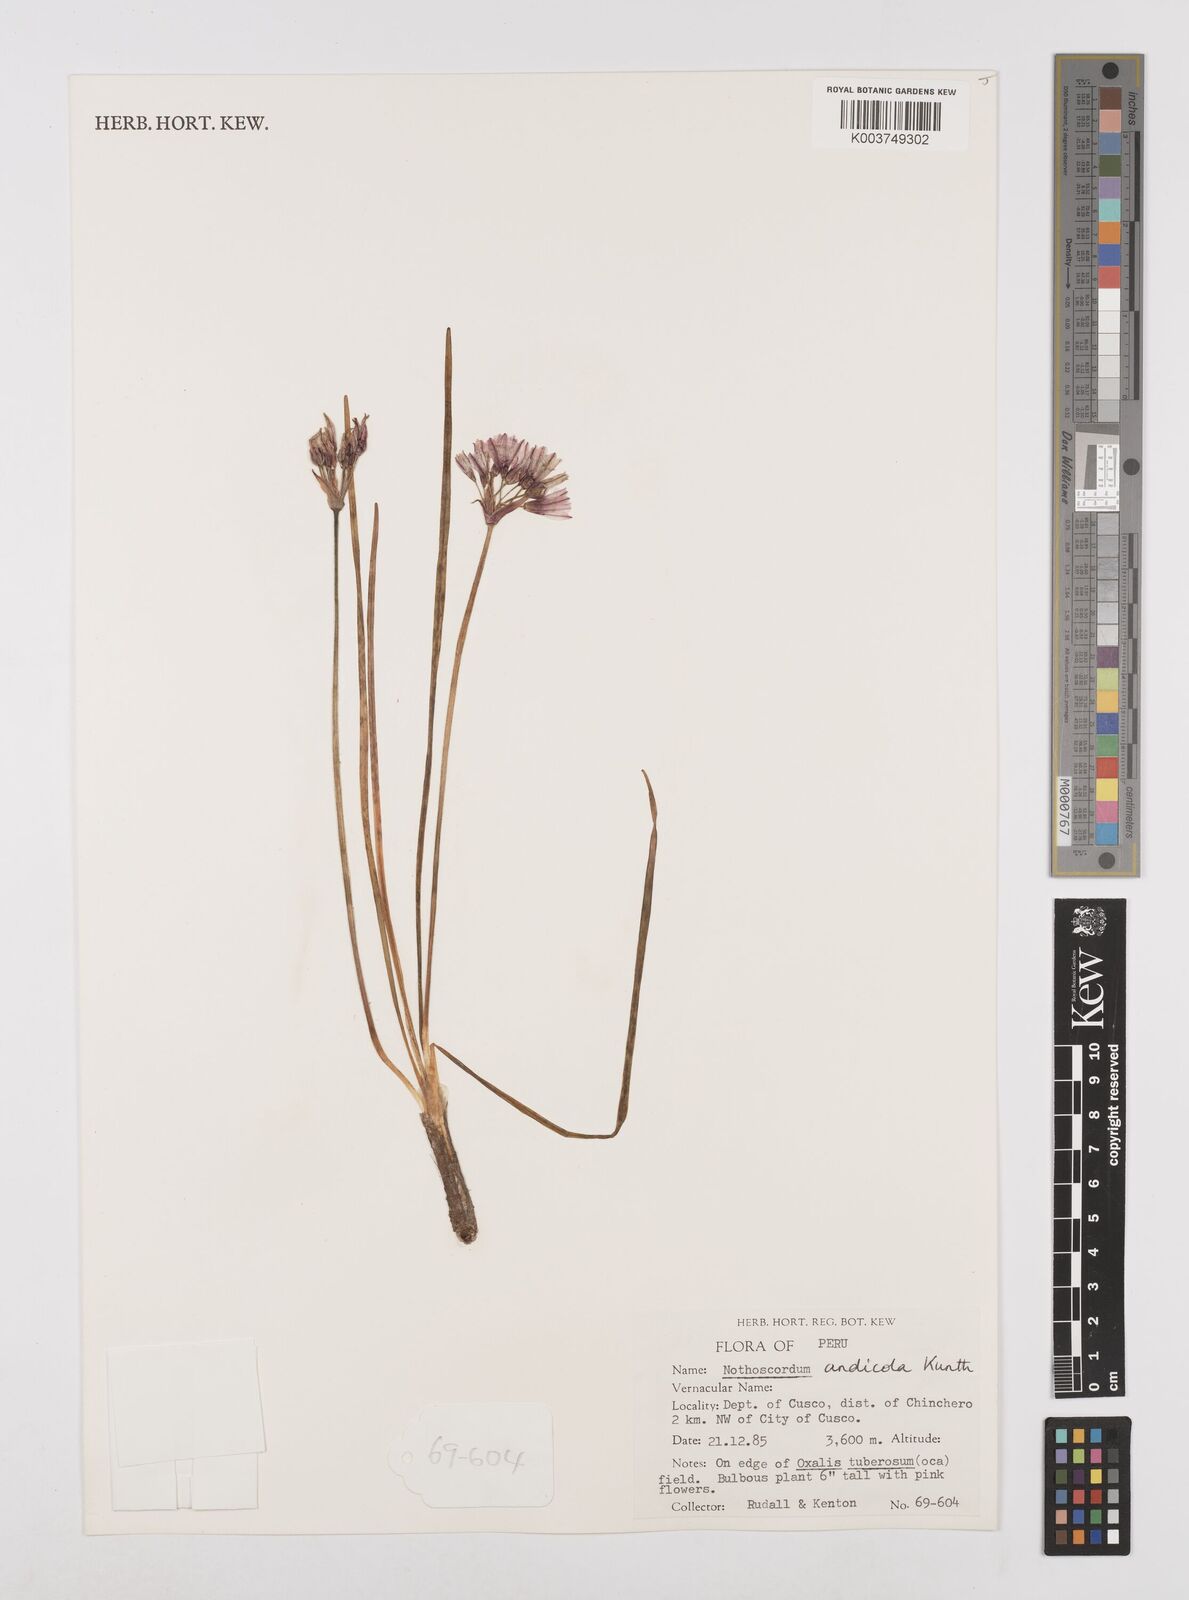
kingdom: Plantae
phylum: Tracheophyta
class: Liliopsida
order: Asparagales
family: Amaryllidaceae
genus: Nothoscordum
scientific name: Nothoscordum andicola
